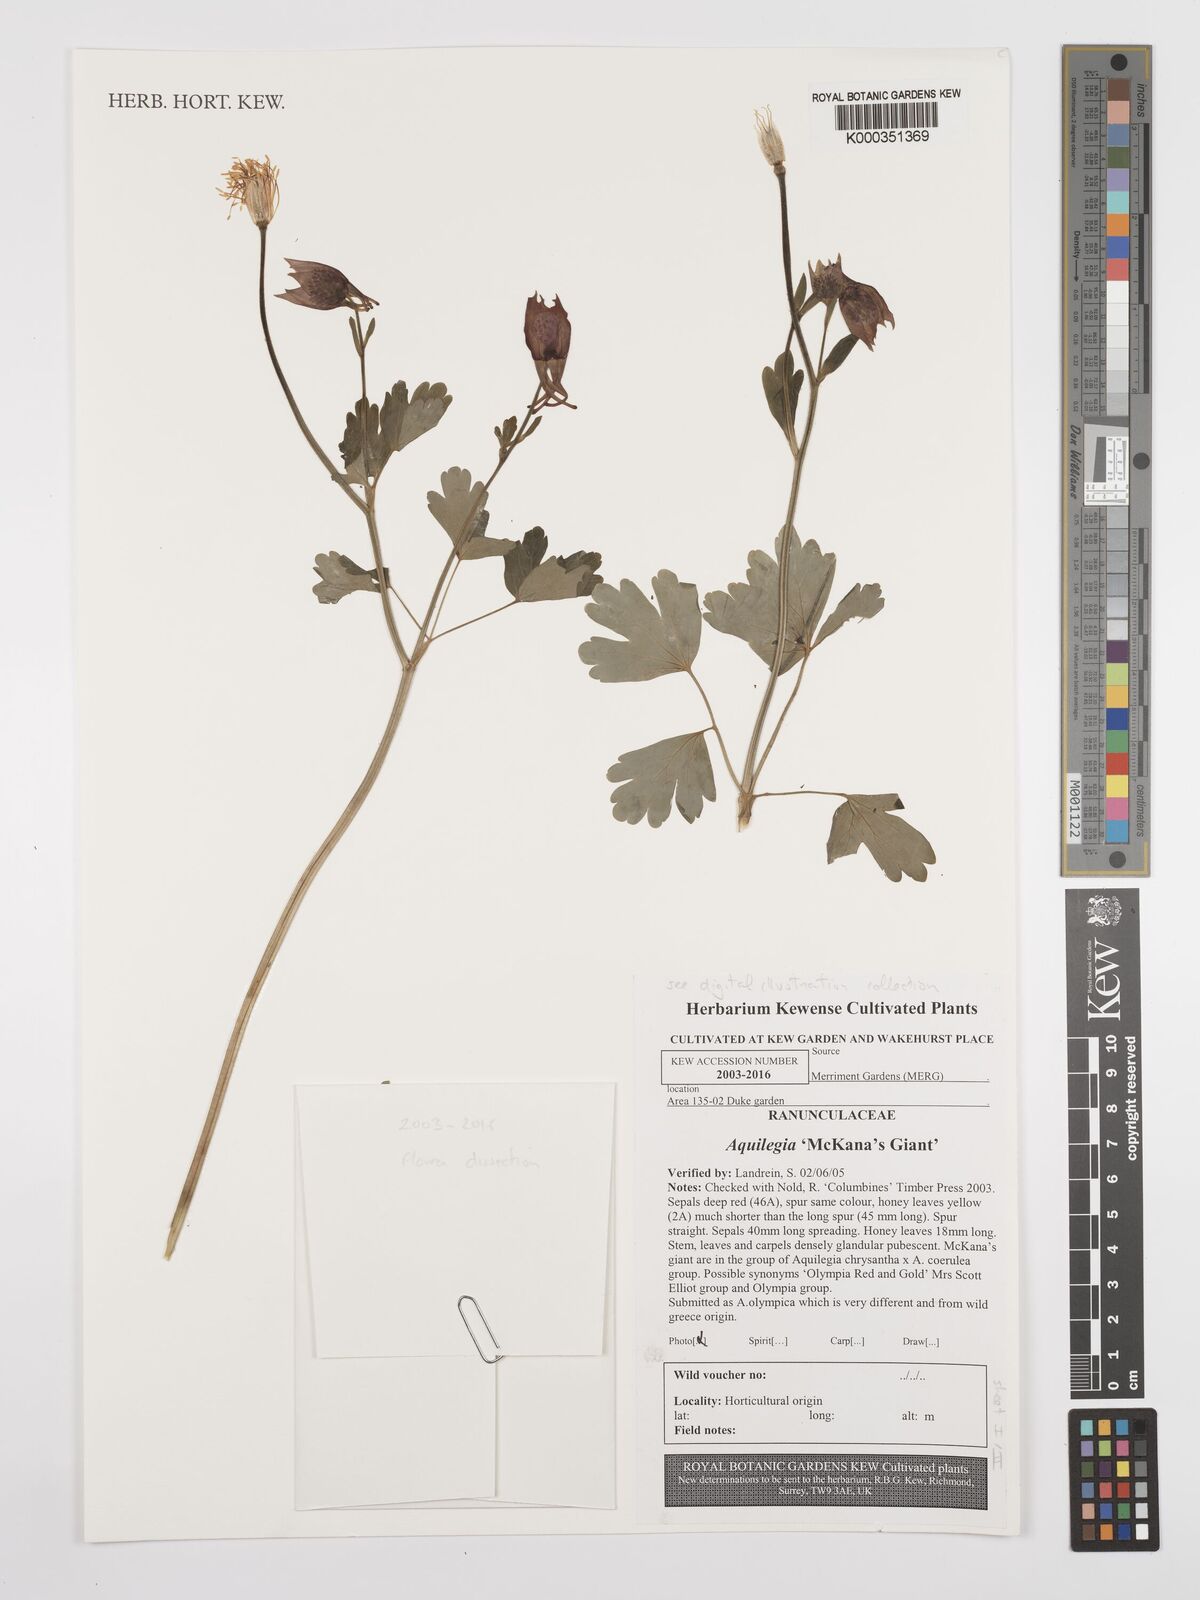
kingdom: Plantae
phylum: Tracheophyta
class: Magnoliopsida
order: Ranunculales
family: Ranunculaceae
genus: Aquilegia
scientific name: Aquilegia
